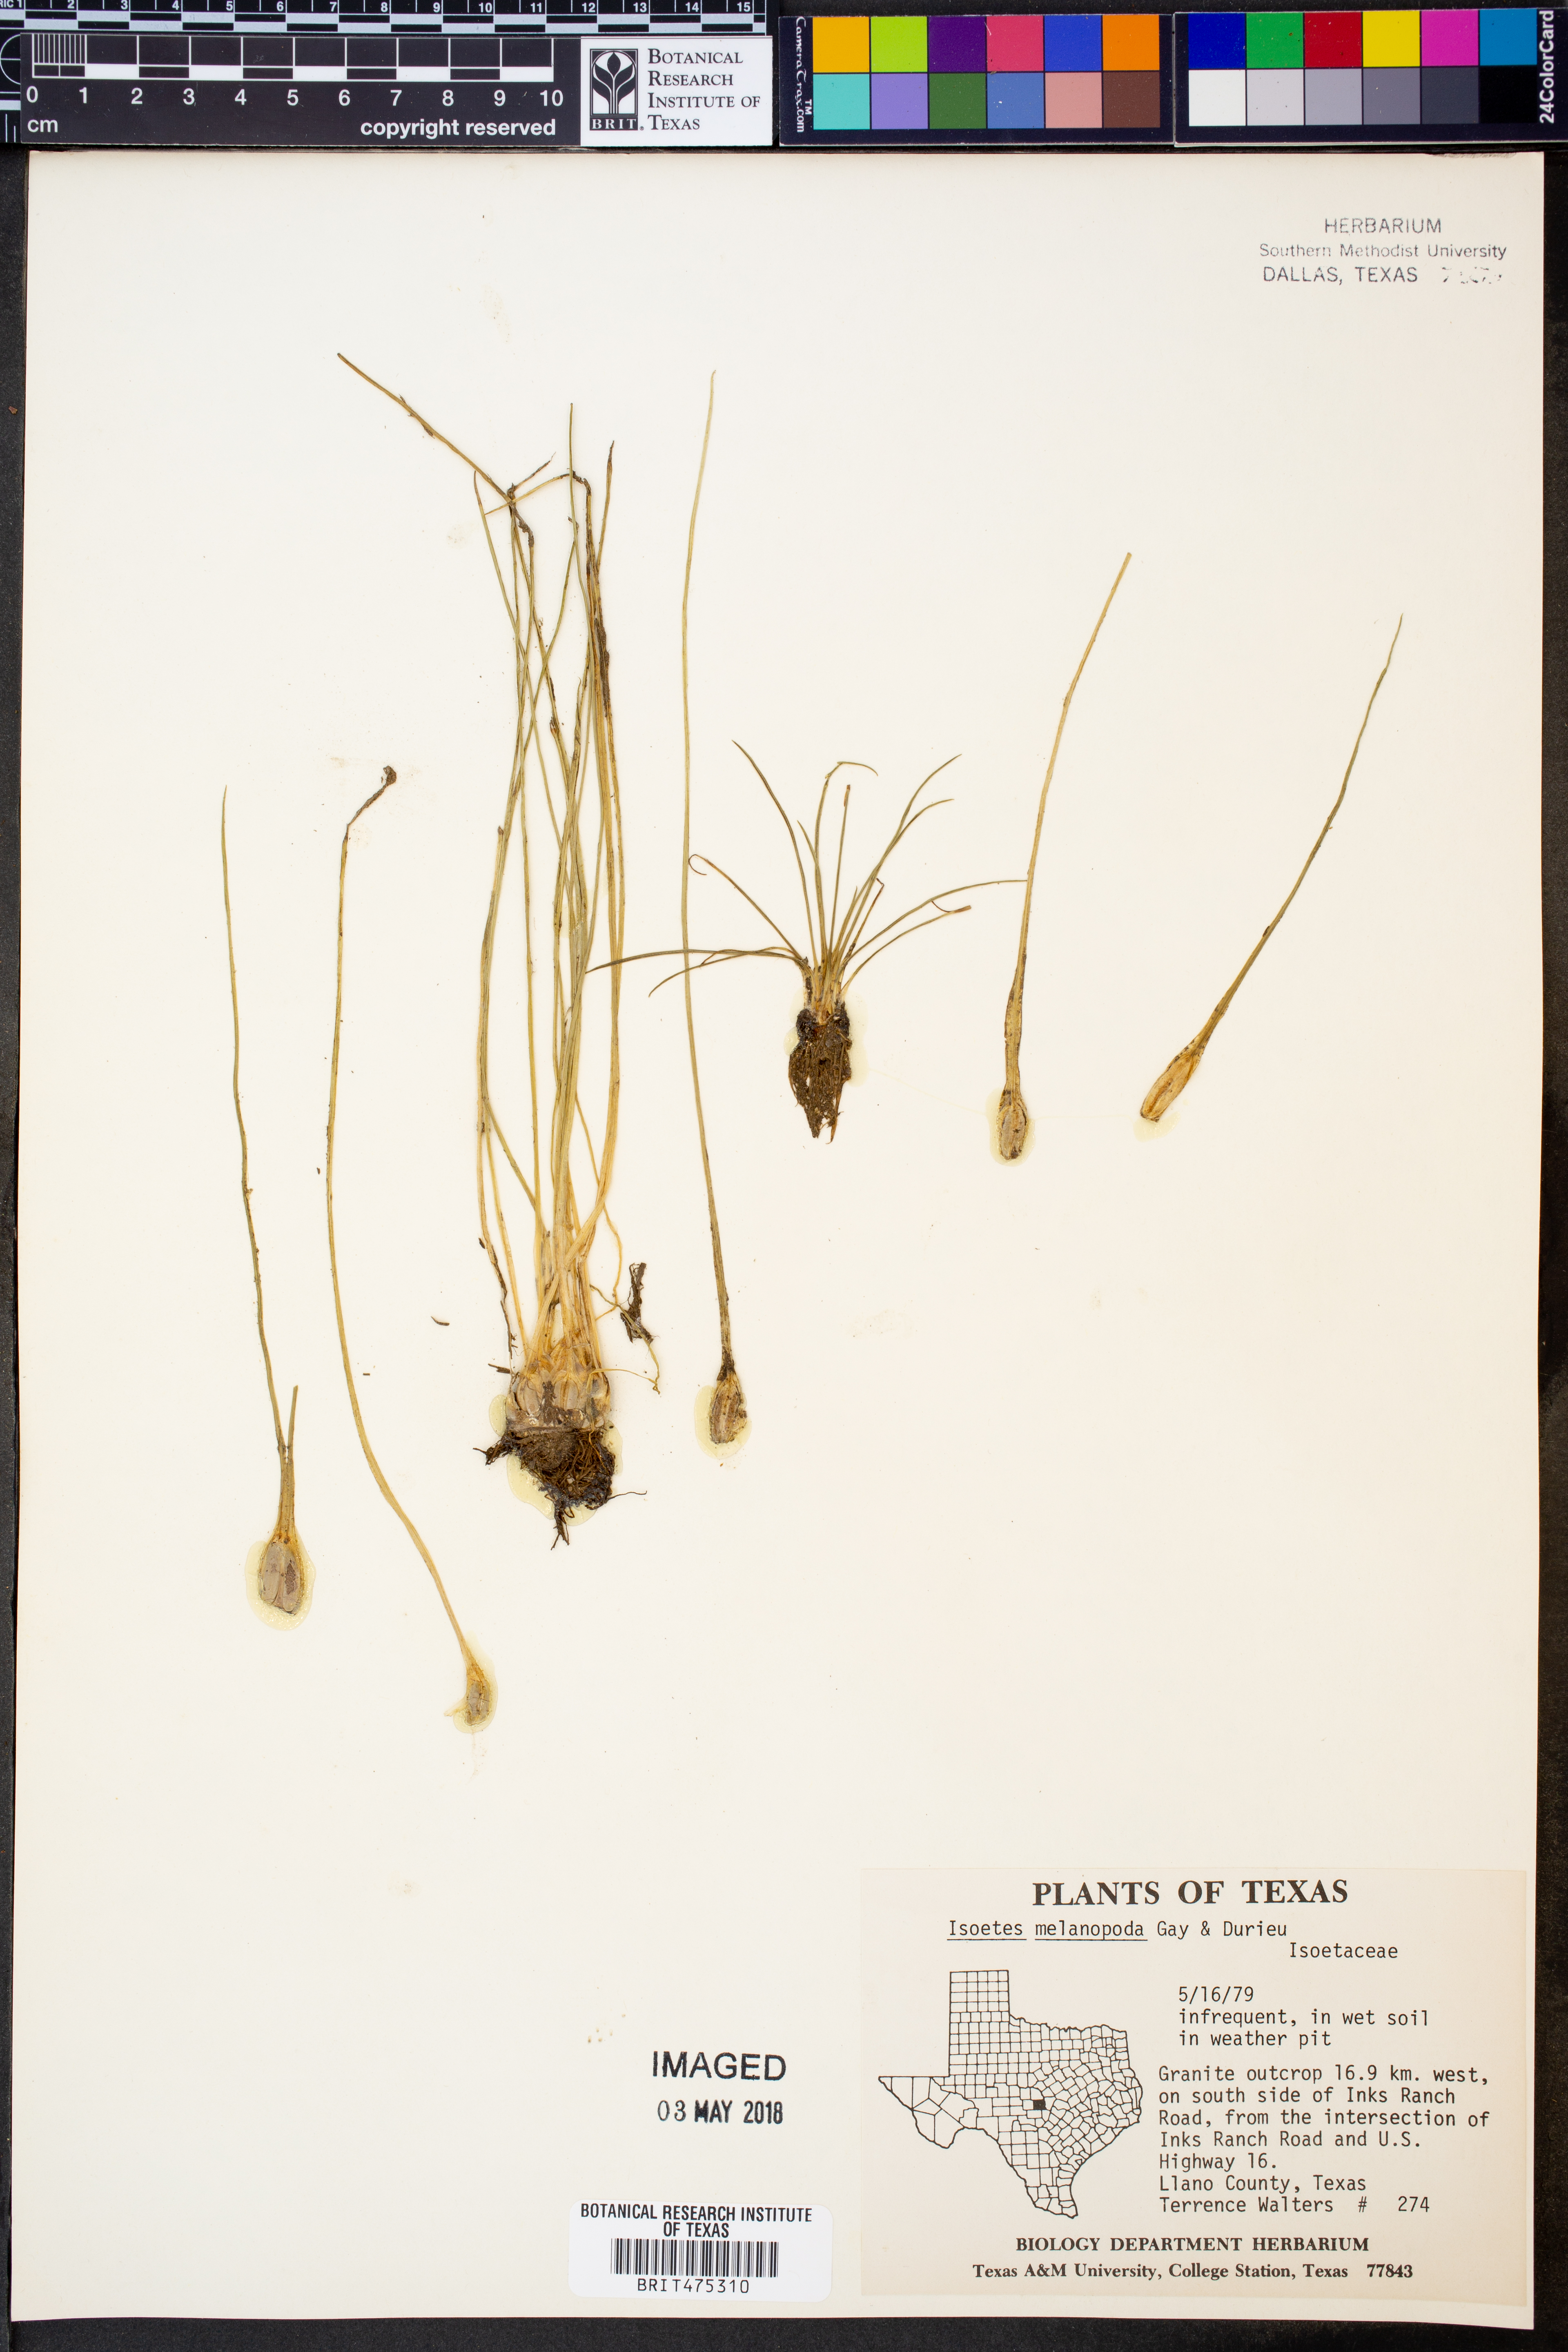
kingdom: Plantae
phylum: Tracheophyta
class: Lycopodiopsida
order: Isoetales
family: Isoetaceae
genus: Isoetes
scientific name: Isoetes melanopoda
